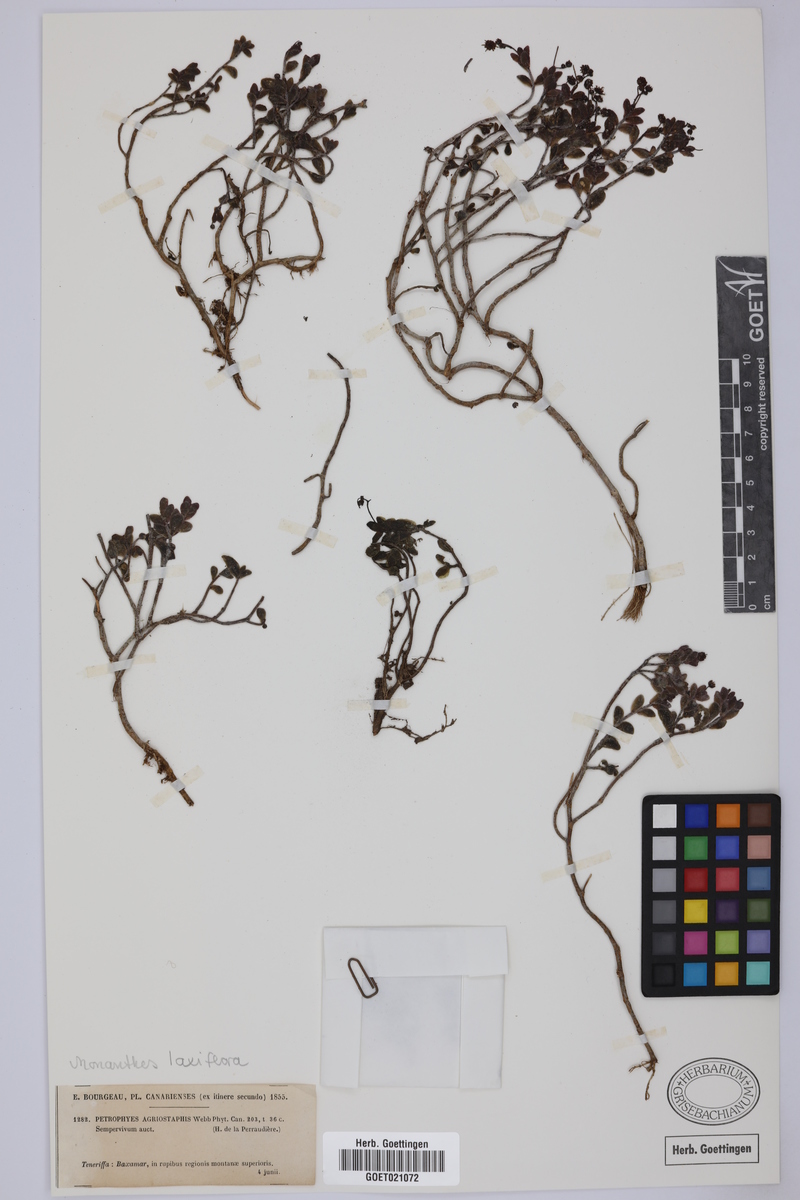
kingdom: Plantae
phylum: Tracheophyta
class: Magnoliopsida
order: Saxifragales
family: Crassulaceae
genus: Monanthes
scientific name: Monanthes laxiflora
